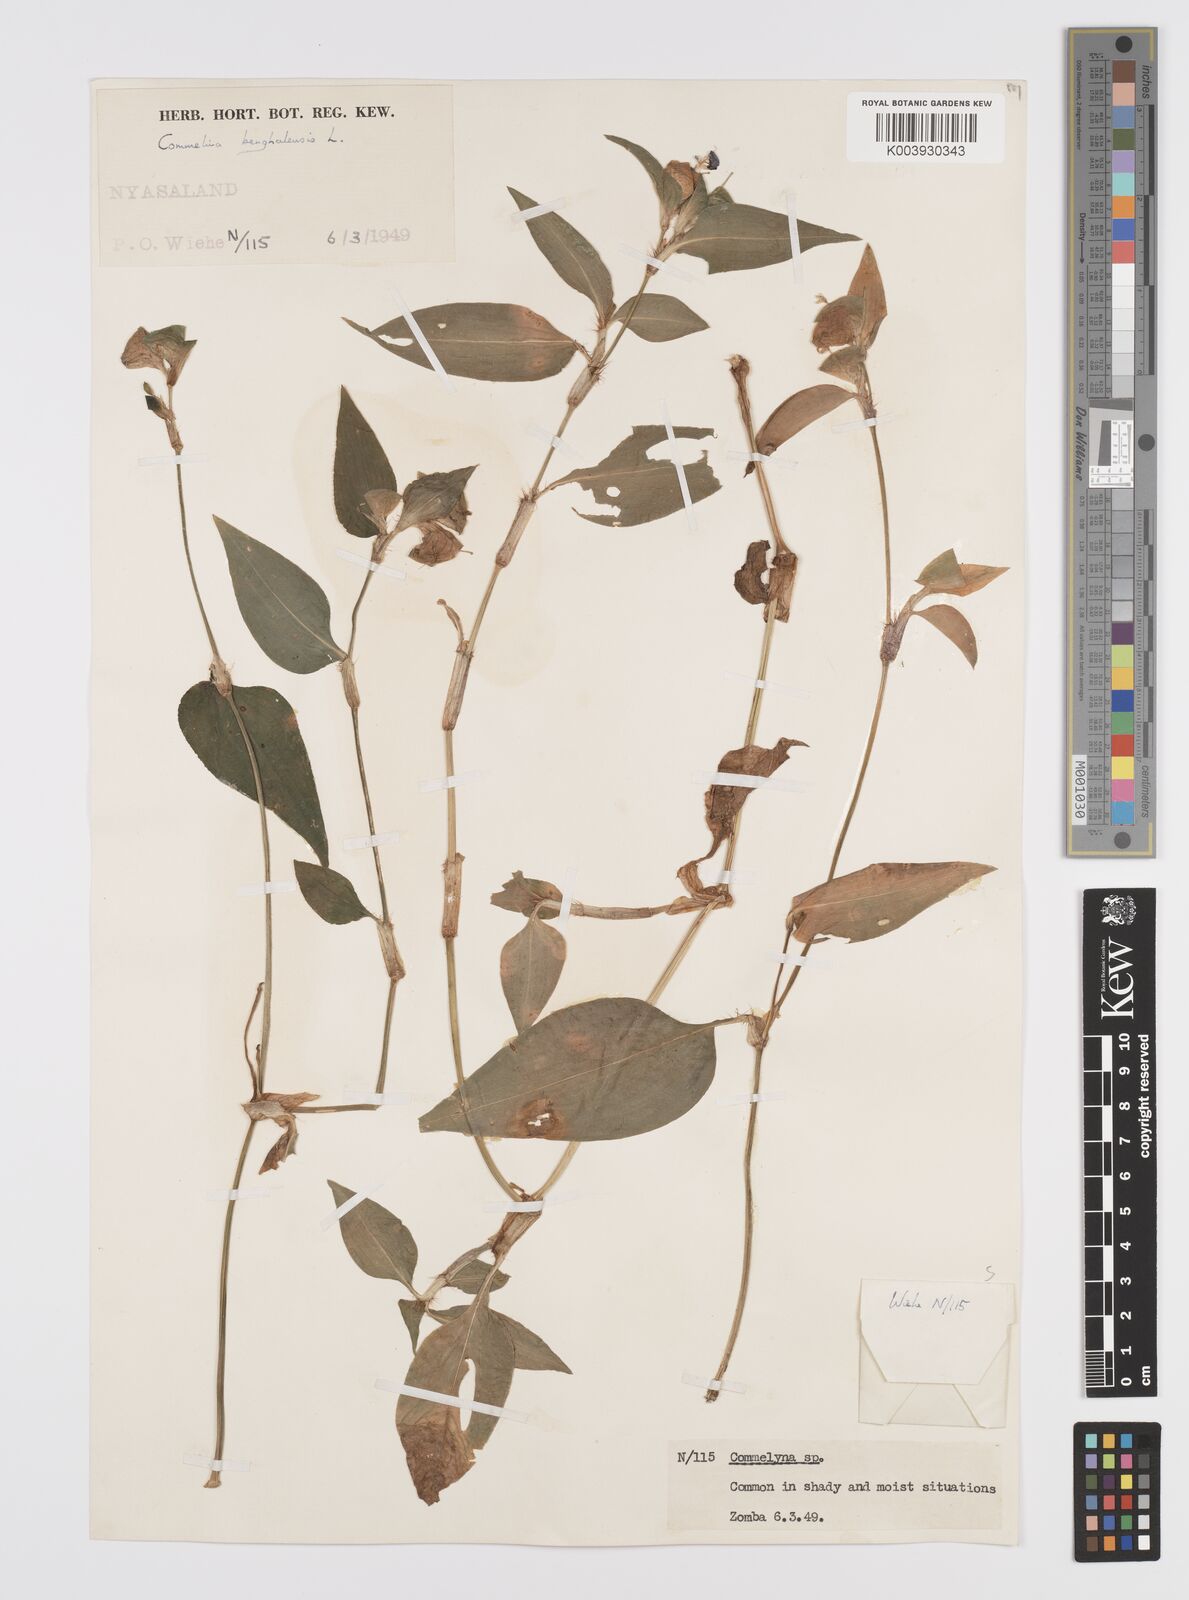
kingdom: Plantae
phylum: Tracheophyta
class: Liliopsida
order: Commelinales
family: Commelinaceae
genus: Commelina
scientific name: Commelina benghalensis
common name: Jio
